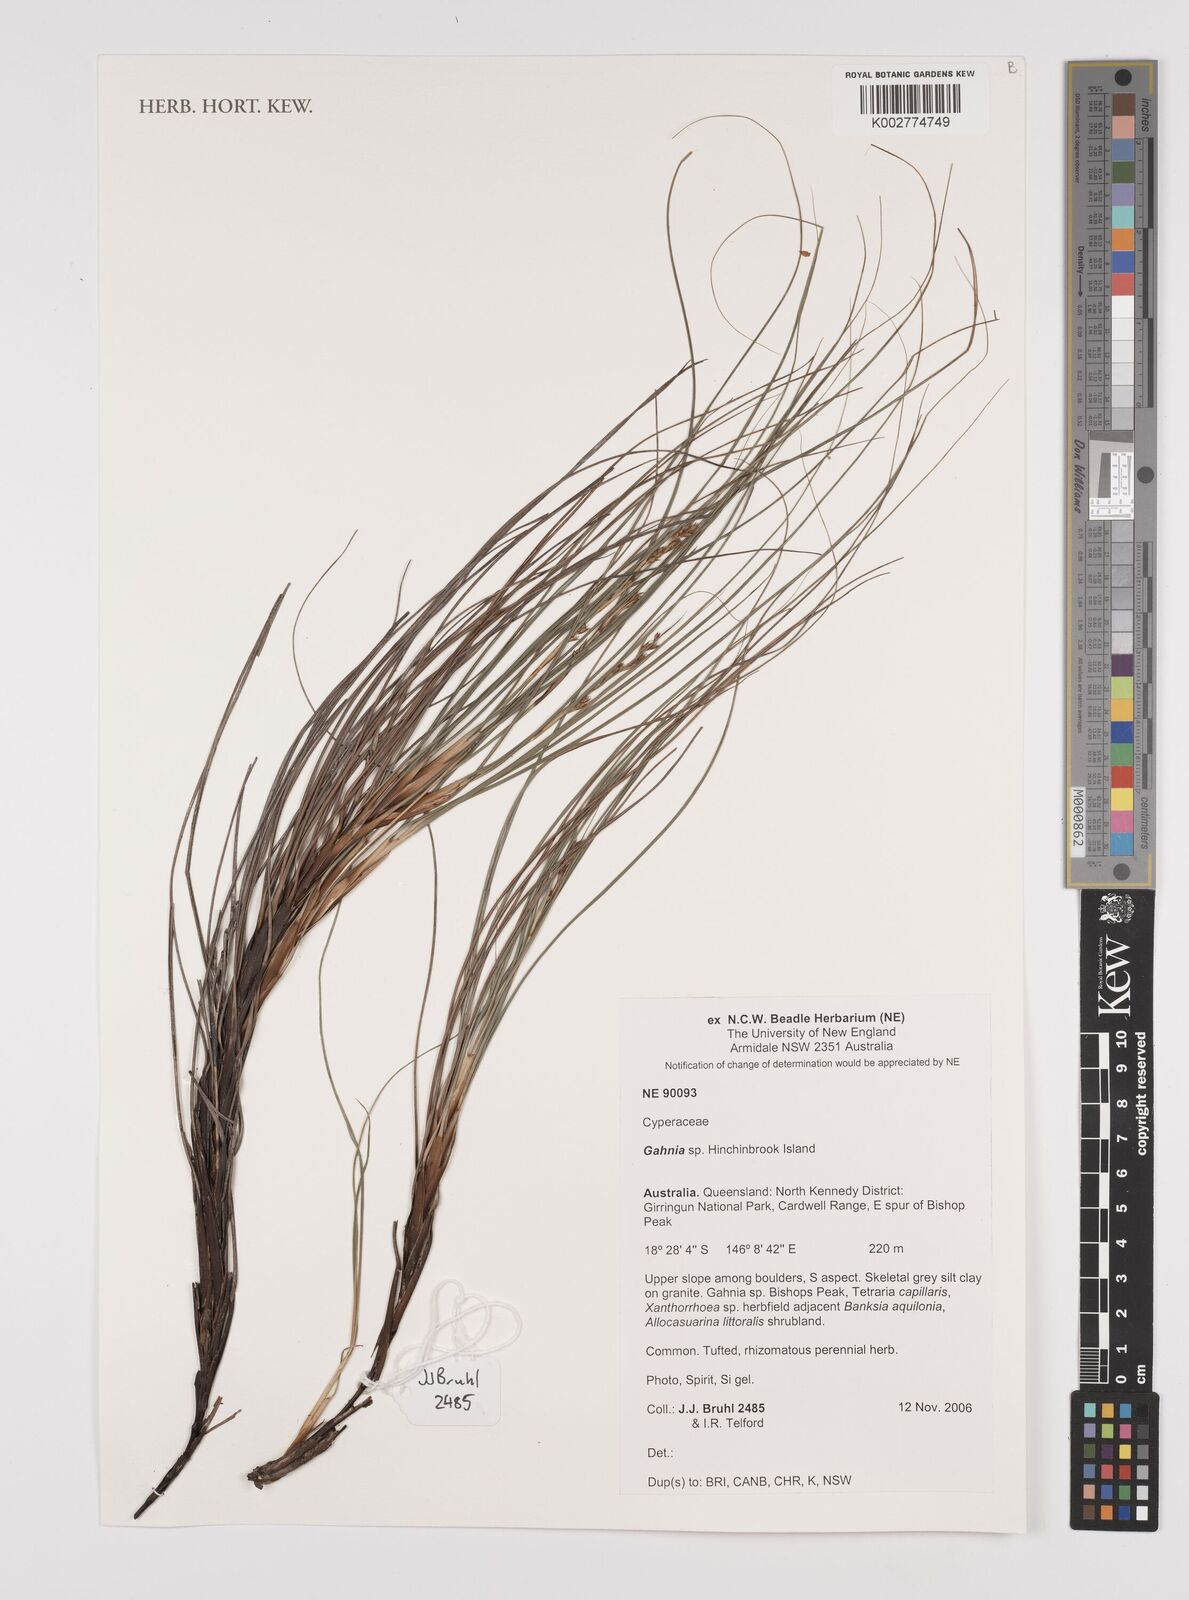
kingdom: Plantae
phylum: Tracheophyta
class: Liliopsida
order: Poales
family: Cyperaceae
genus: Gahnia
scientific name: Gahnia
